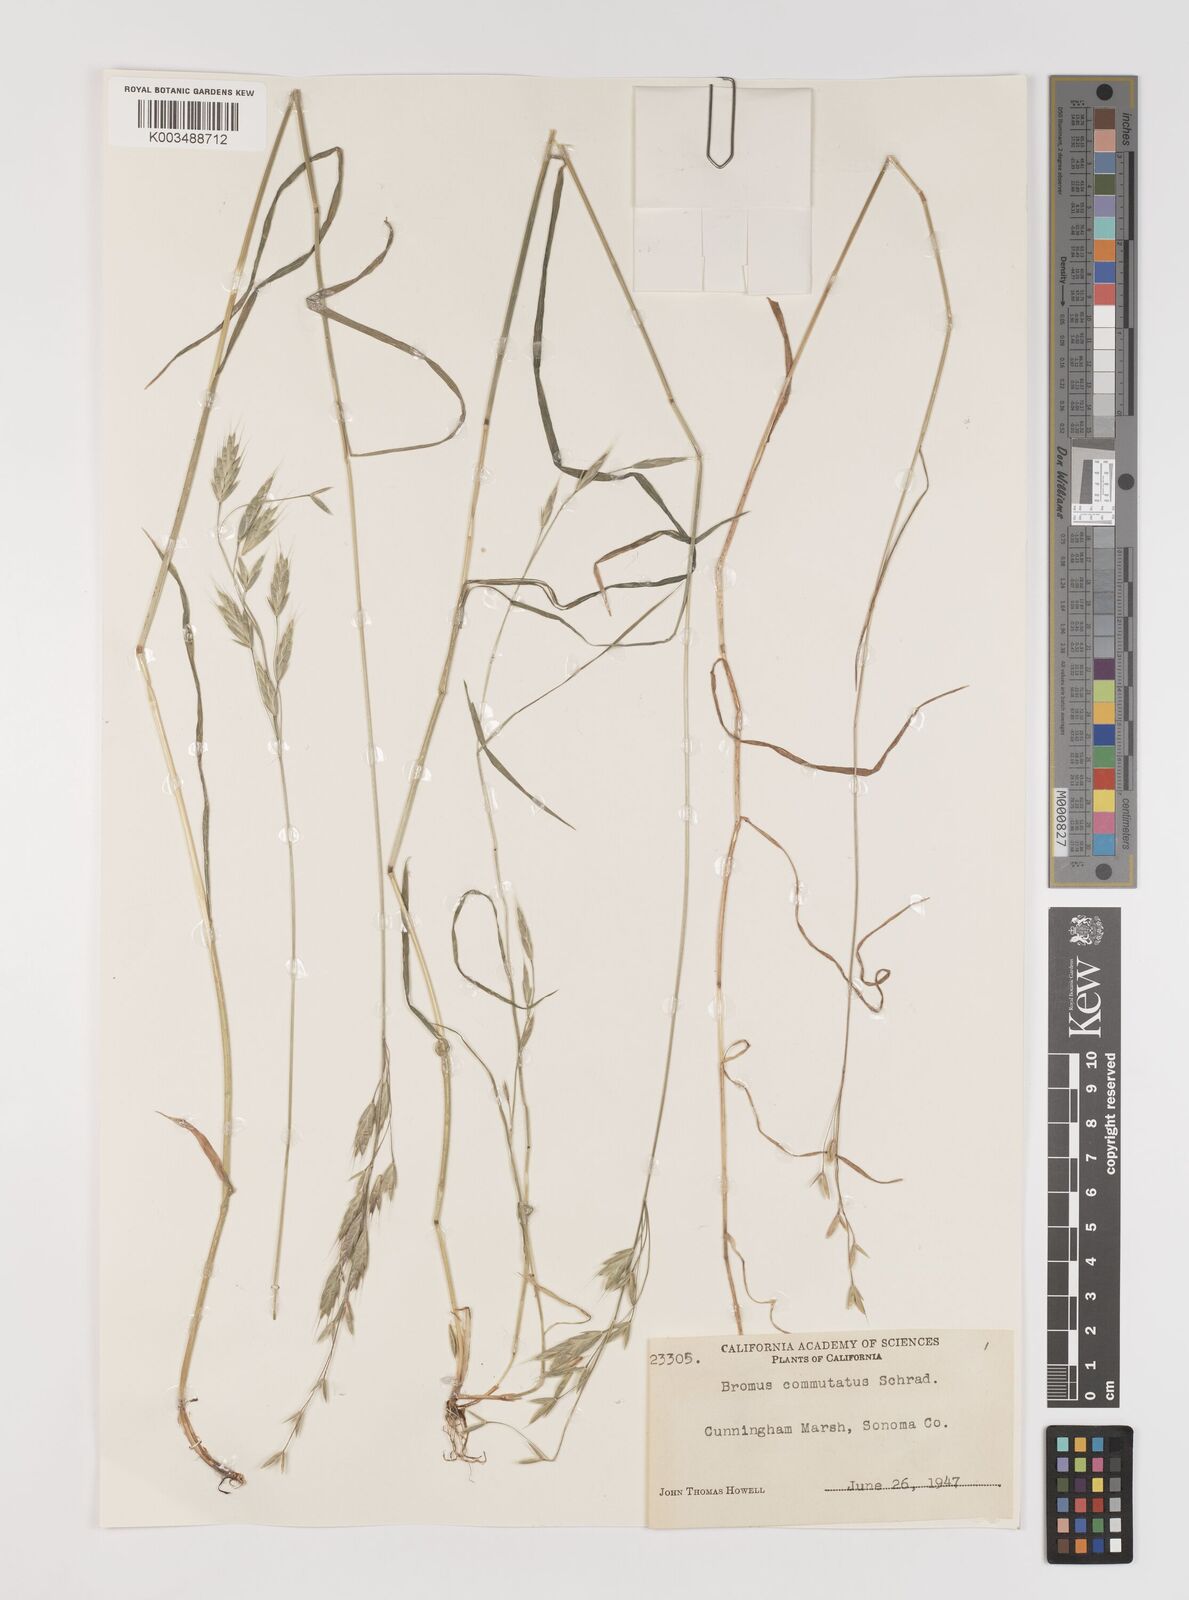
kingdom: Plantae
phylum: Tracheophyta
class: Liliopsida
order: Poales
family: Poaceae
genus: Bromus
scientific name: Bromus racemosus
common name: Bald brome
